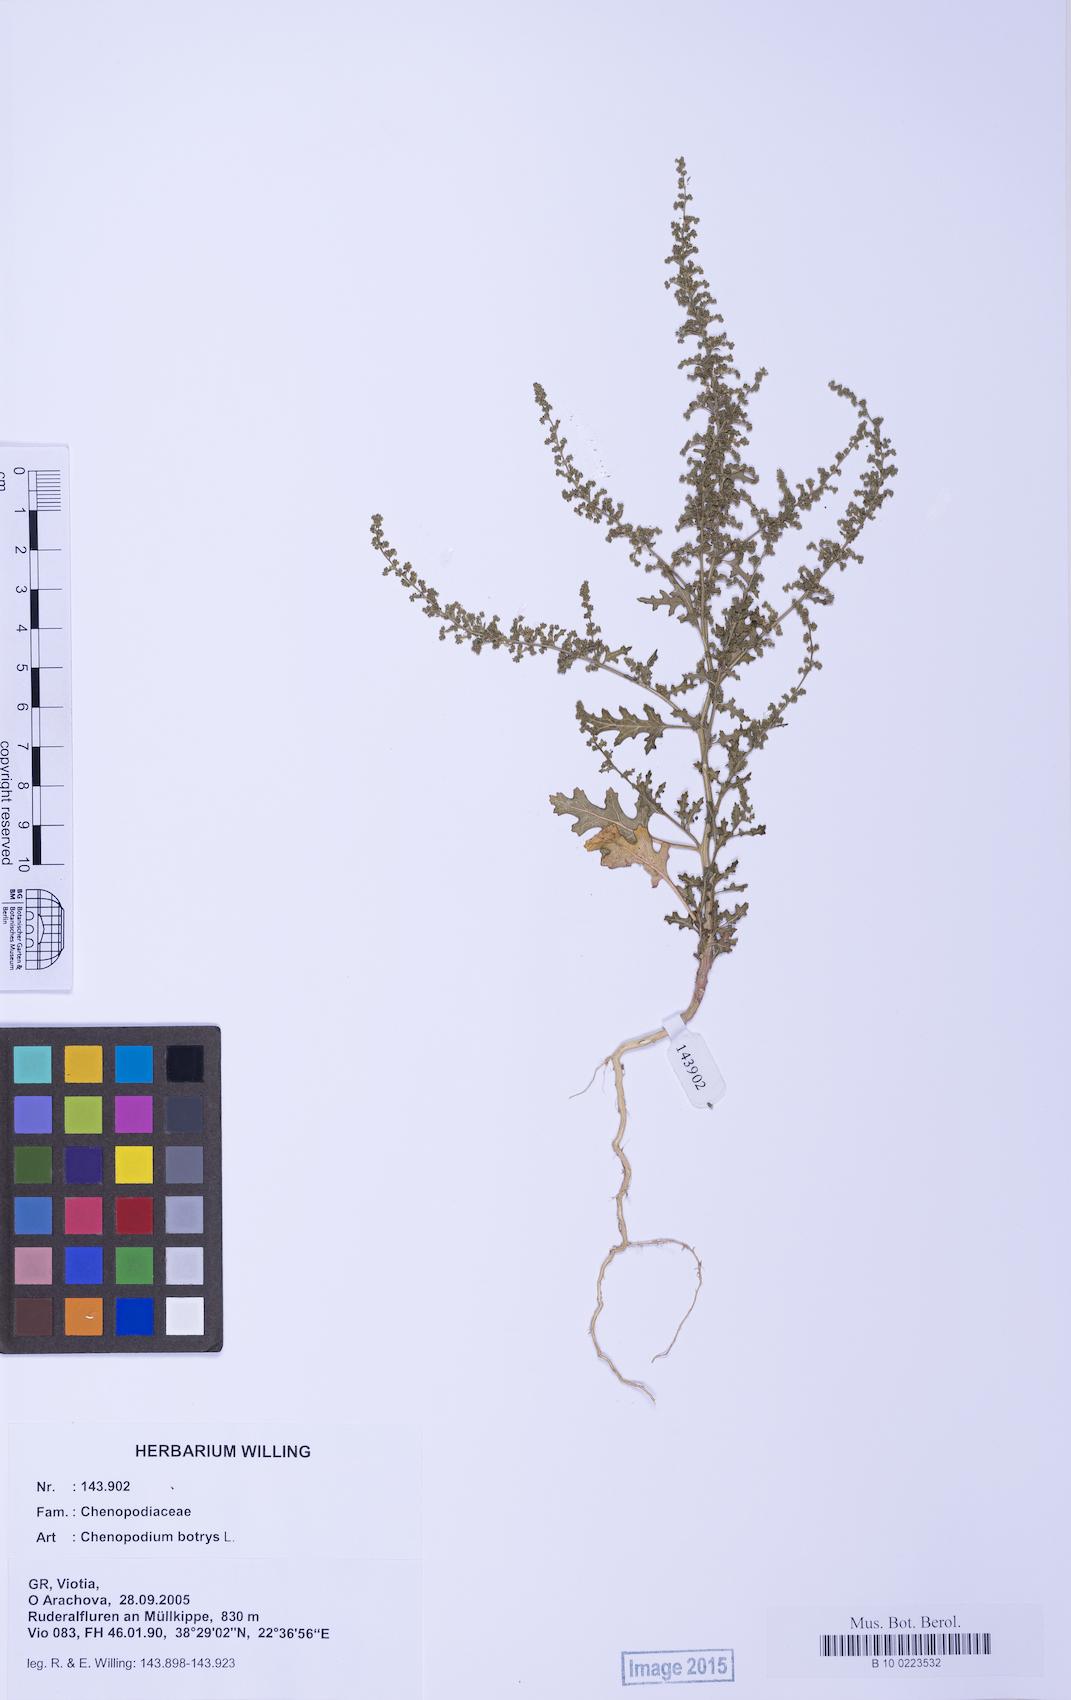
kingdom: Plantae
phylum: Tracheophyta
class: Magnoliopsida
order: Caryophyllales
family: Amaranthaceae
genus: Dysphania
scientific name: Dysphania botrys
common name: Feather-geranium
